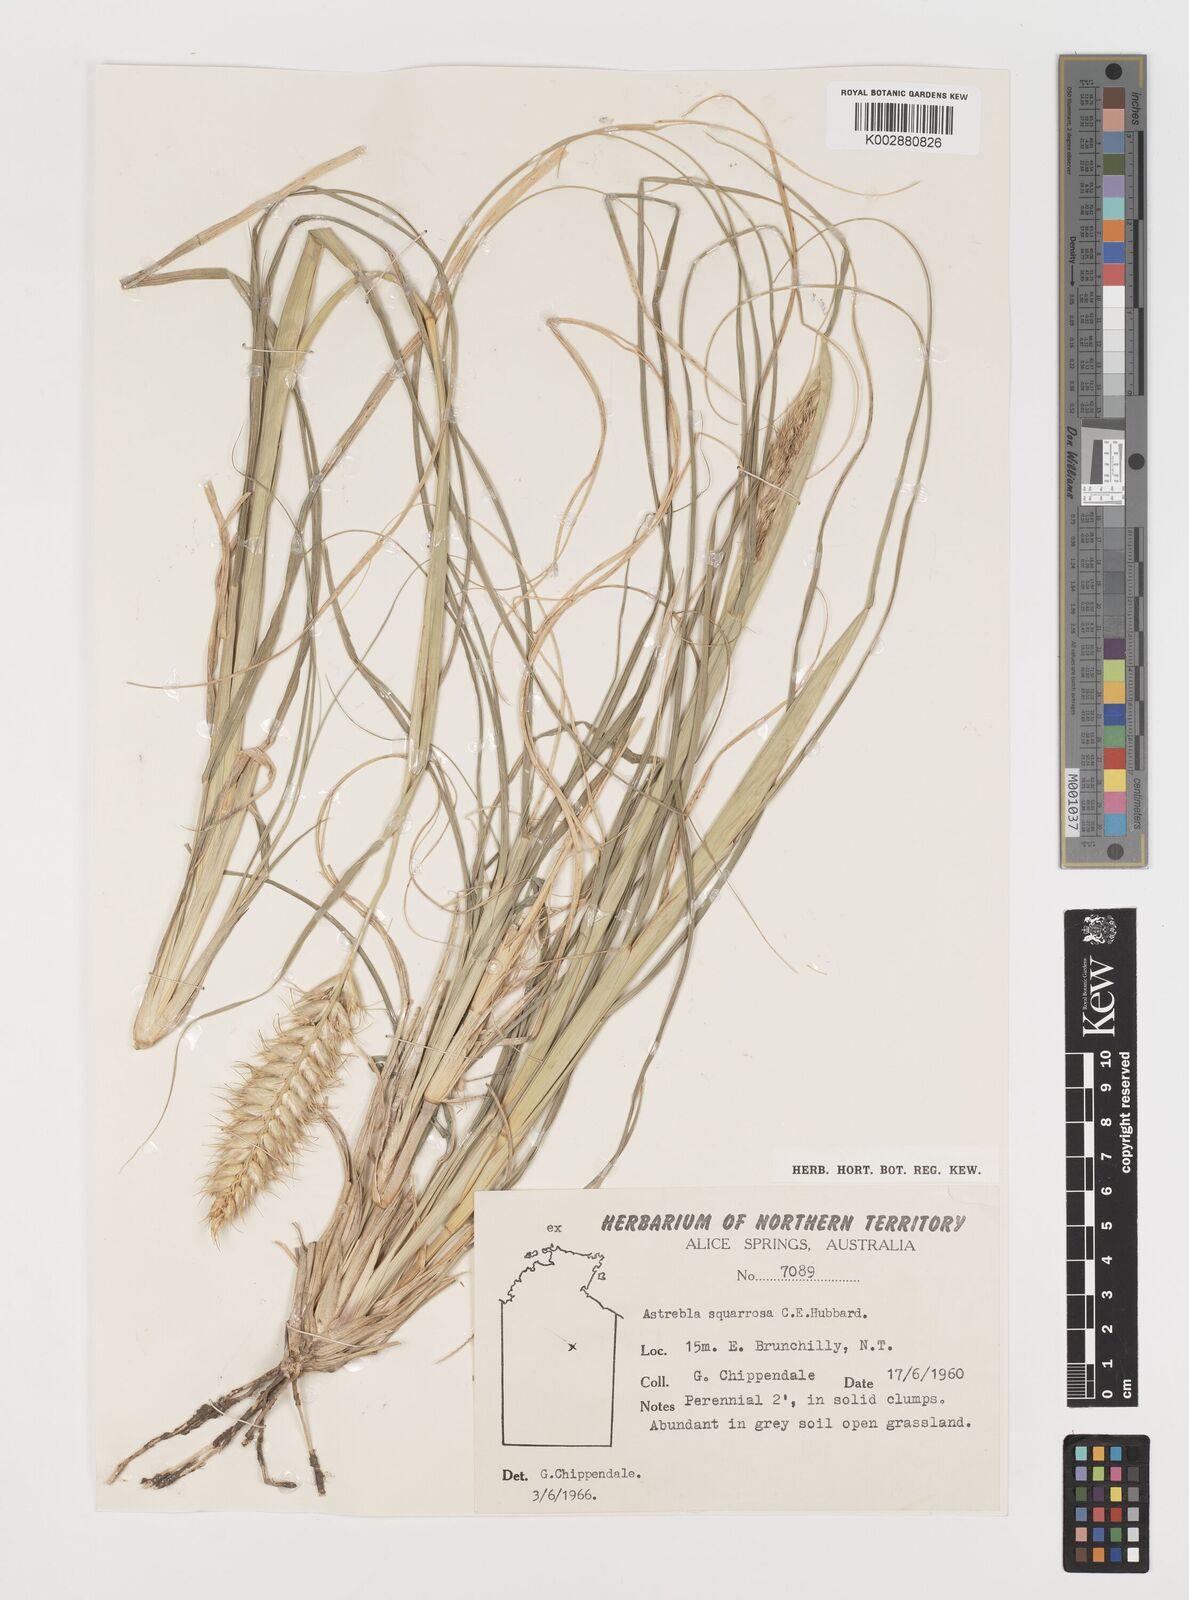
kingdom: Plantae
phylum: Tracheophyta
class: Liliopsida
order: Poales
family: Poaceae
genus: Astrebla
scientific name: Astrebla squarrosa
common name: Wheat-ear mitchell grass
